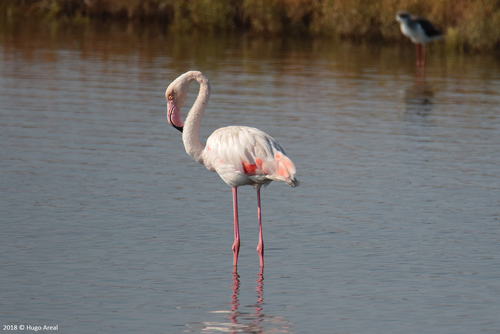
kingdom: Animalia
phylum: Chordata
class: Aves
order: Phoenicopteriformes
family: Phoenicopteridae
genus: Phoenicopterus
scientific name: Phoenicopterus roseus
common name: Greater flamingo
